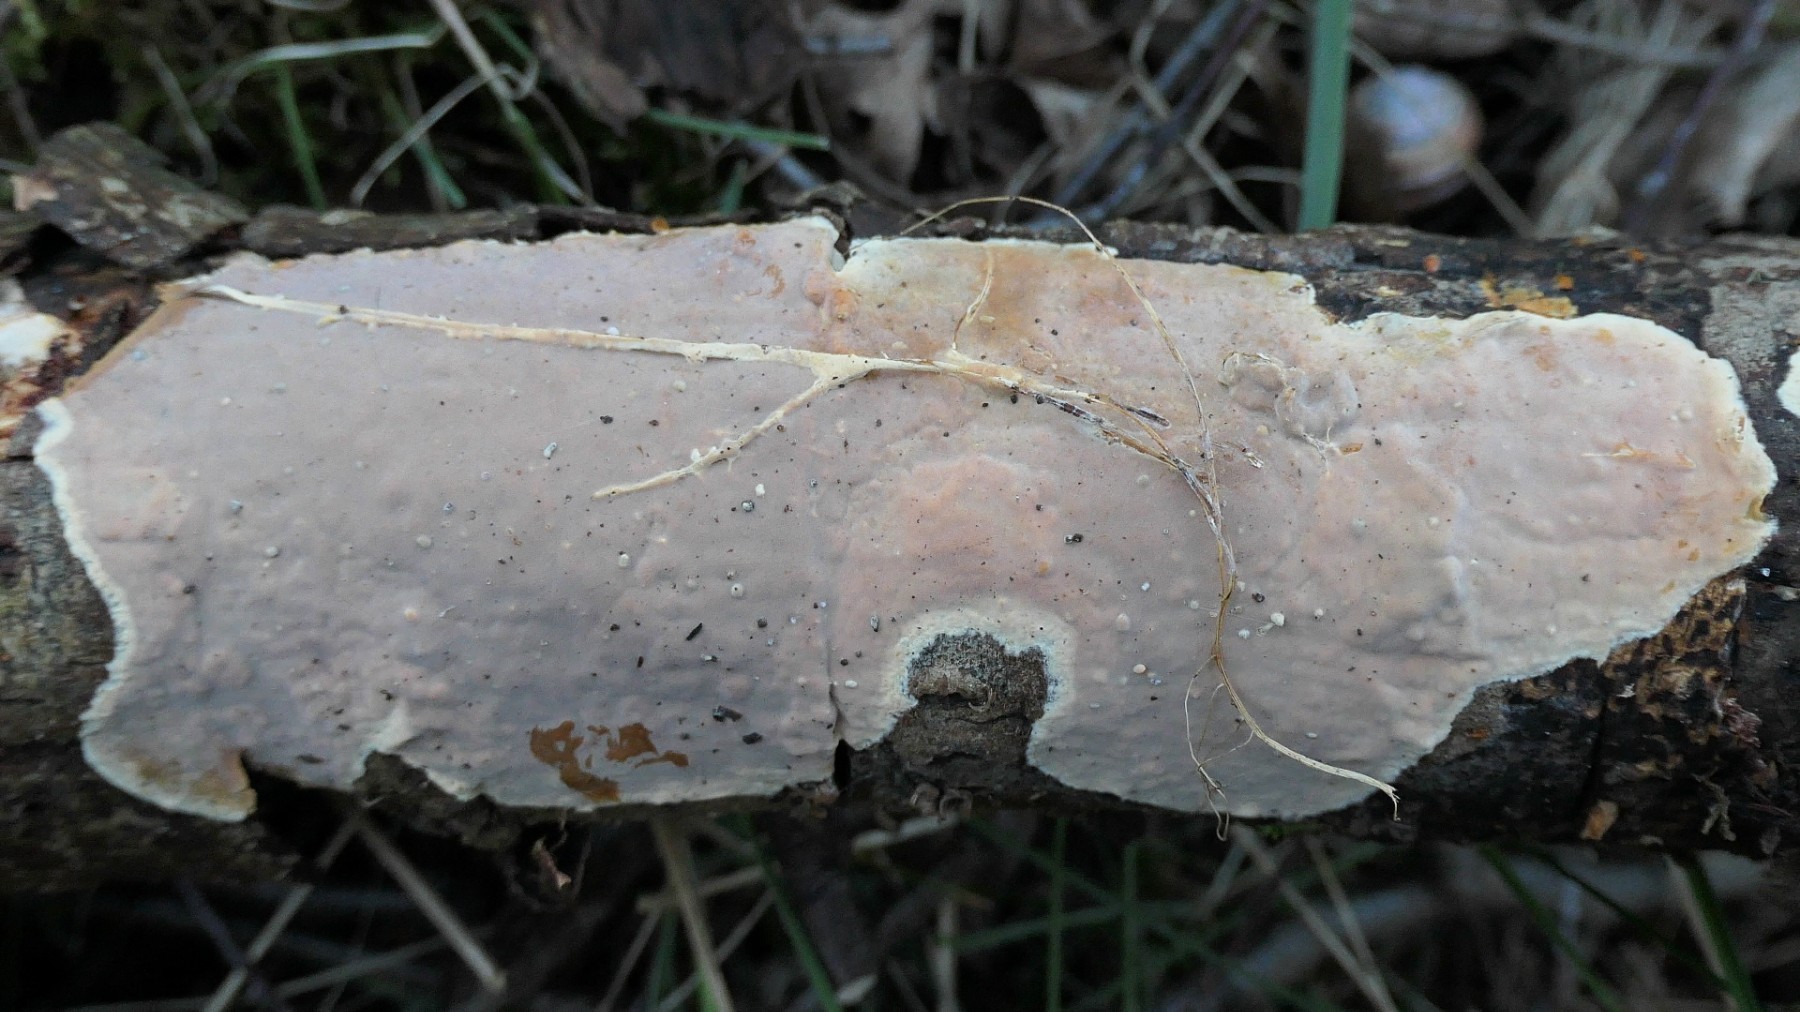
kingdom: Fungi
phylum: Basidiomycota
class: Agaricomycetes
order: Russulales
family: Peniophoraceae
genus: Scytinostroma
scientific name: Scytinostroma hemidichophyticum
